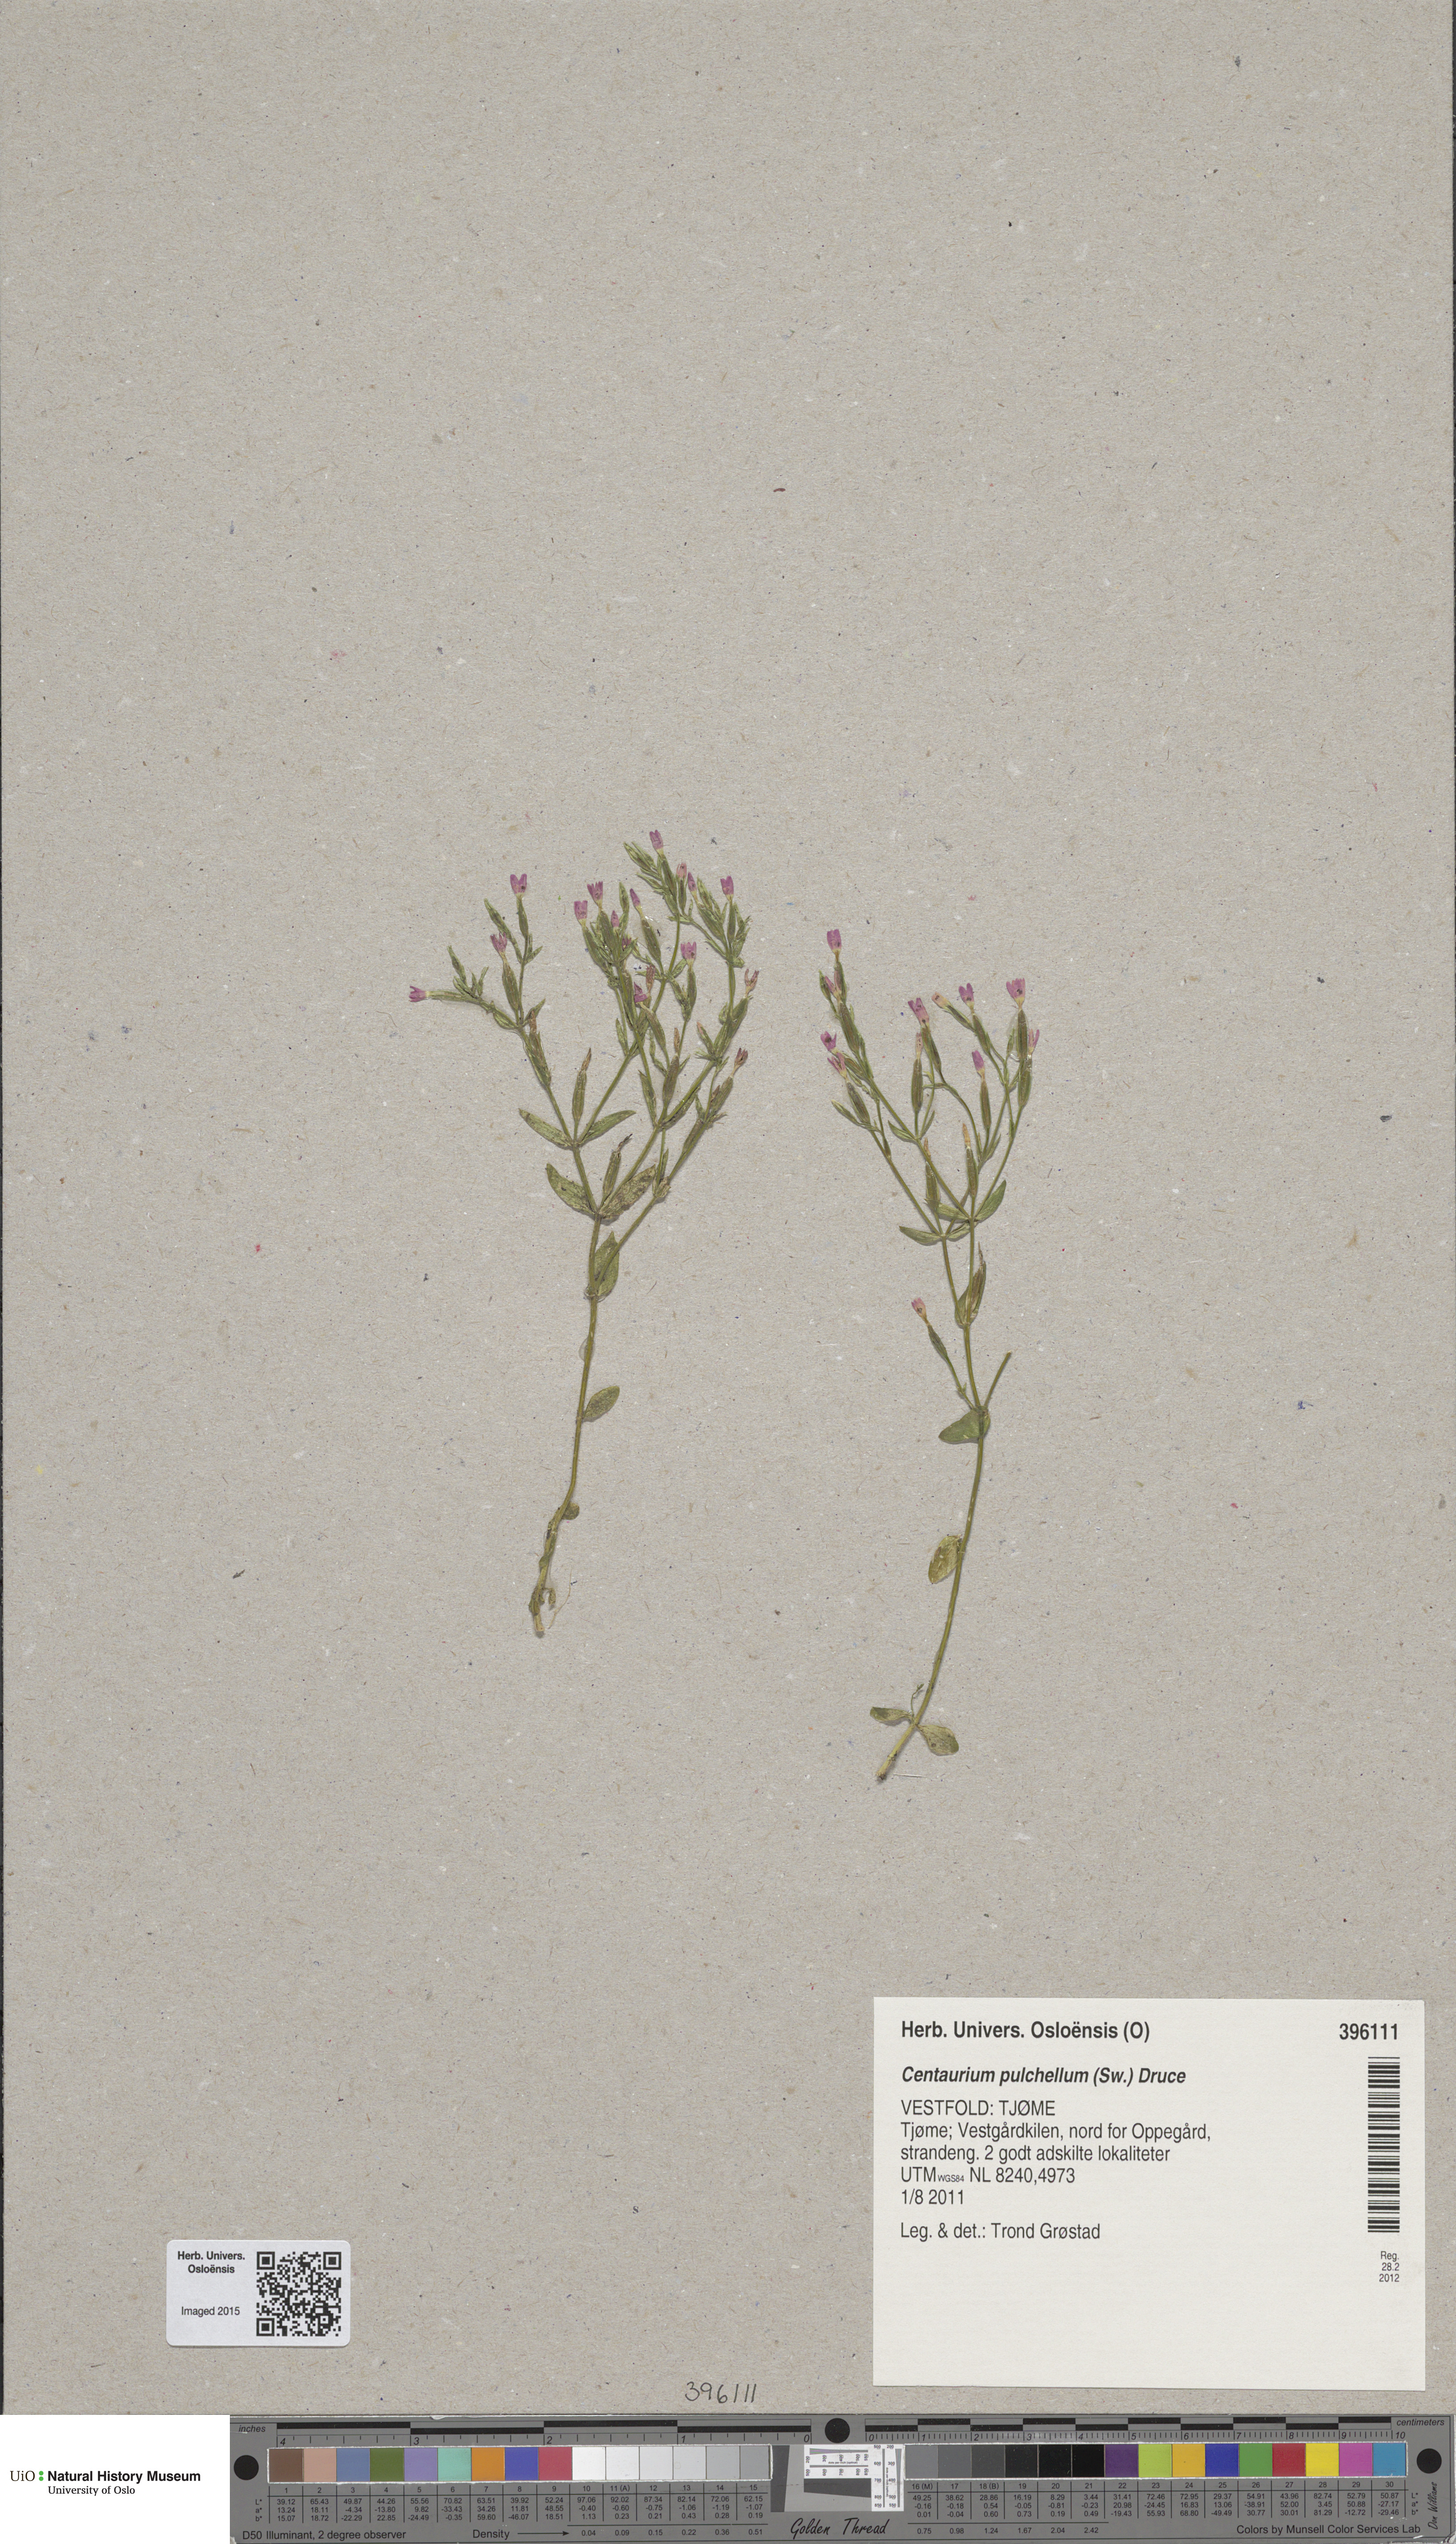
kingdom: Plantae
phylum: Tracheophyta
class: Magnoliopsida
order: Gentianales
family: Gentianaceae
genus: Centaurium
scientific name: Centaurium pulchellum
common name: Lesser centaury
